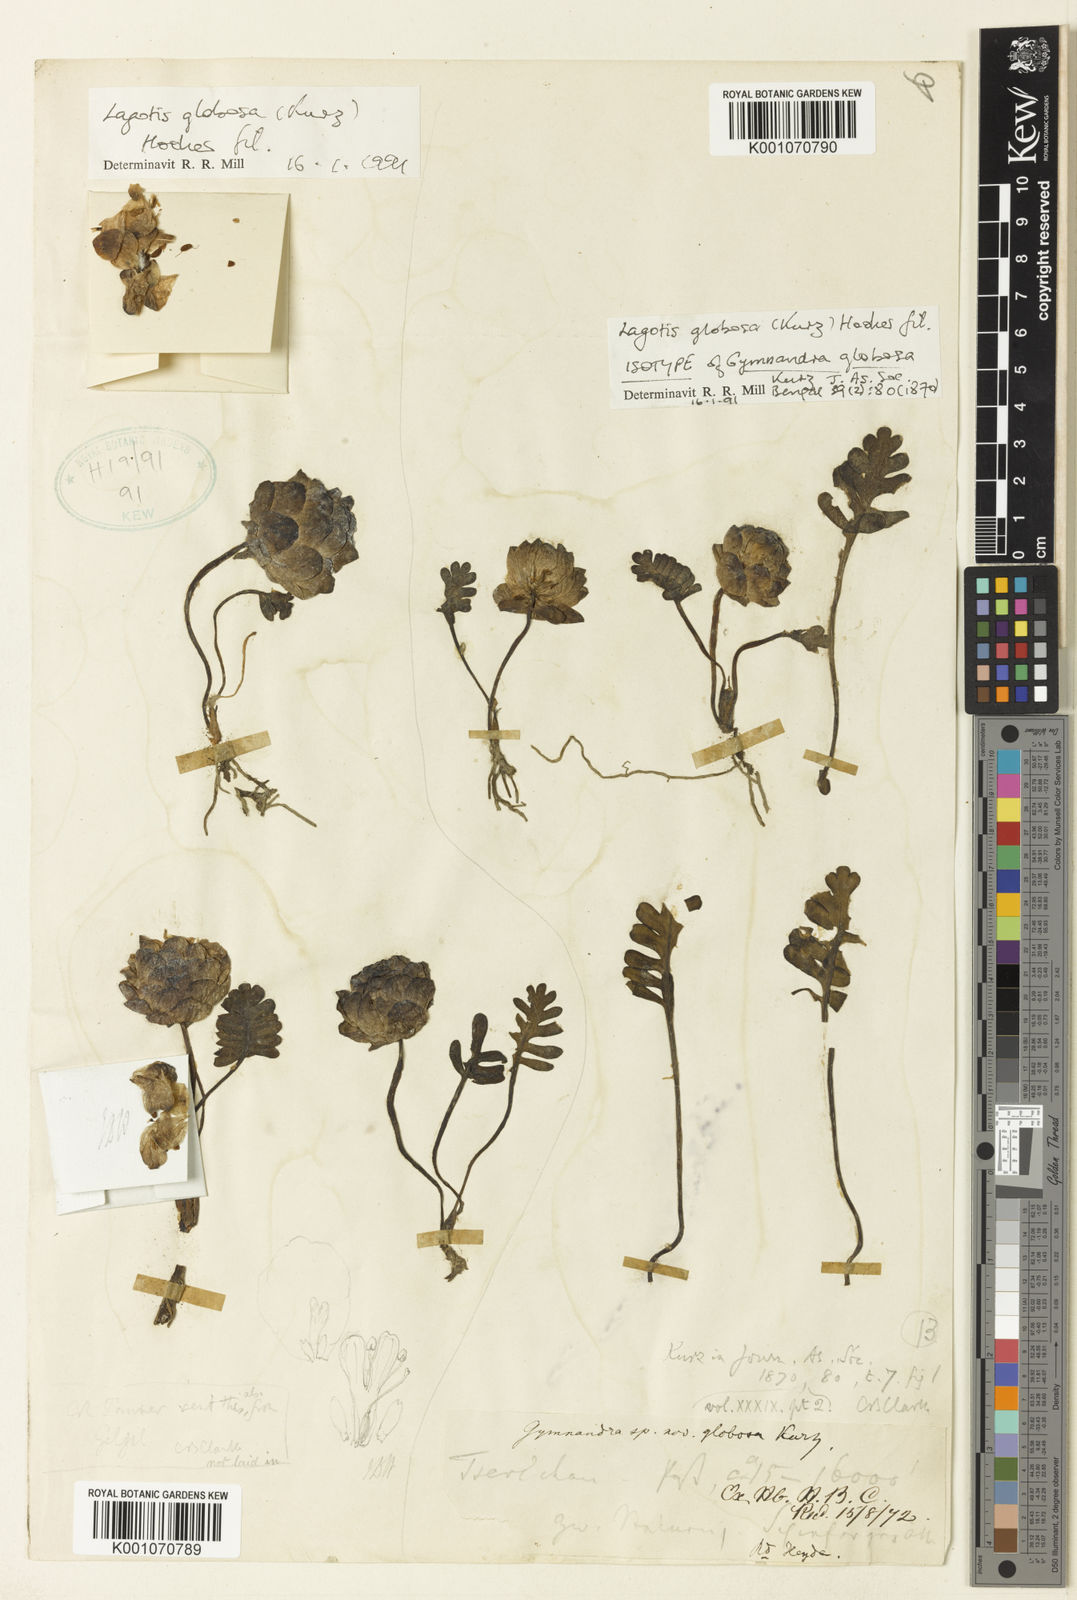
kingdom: Plantae
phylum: Tracheophyta
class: Magnoliopsida
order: Lamiales
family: Plantaginaceae
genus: Lagotis
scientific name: Lagotis globosa
